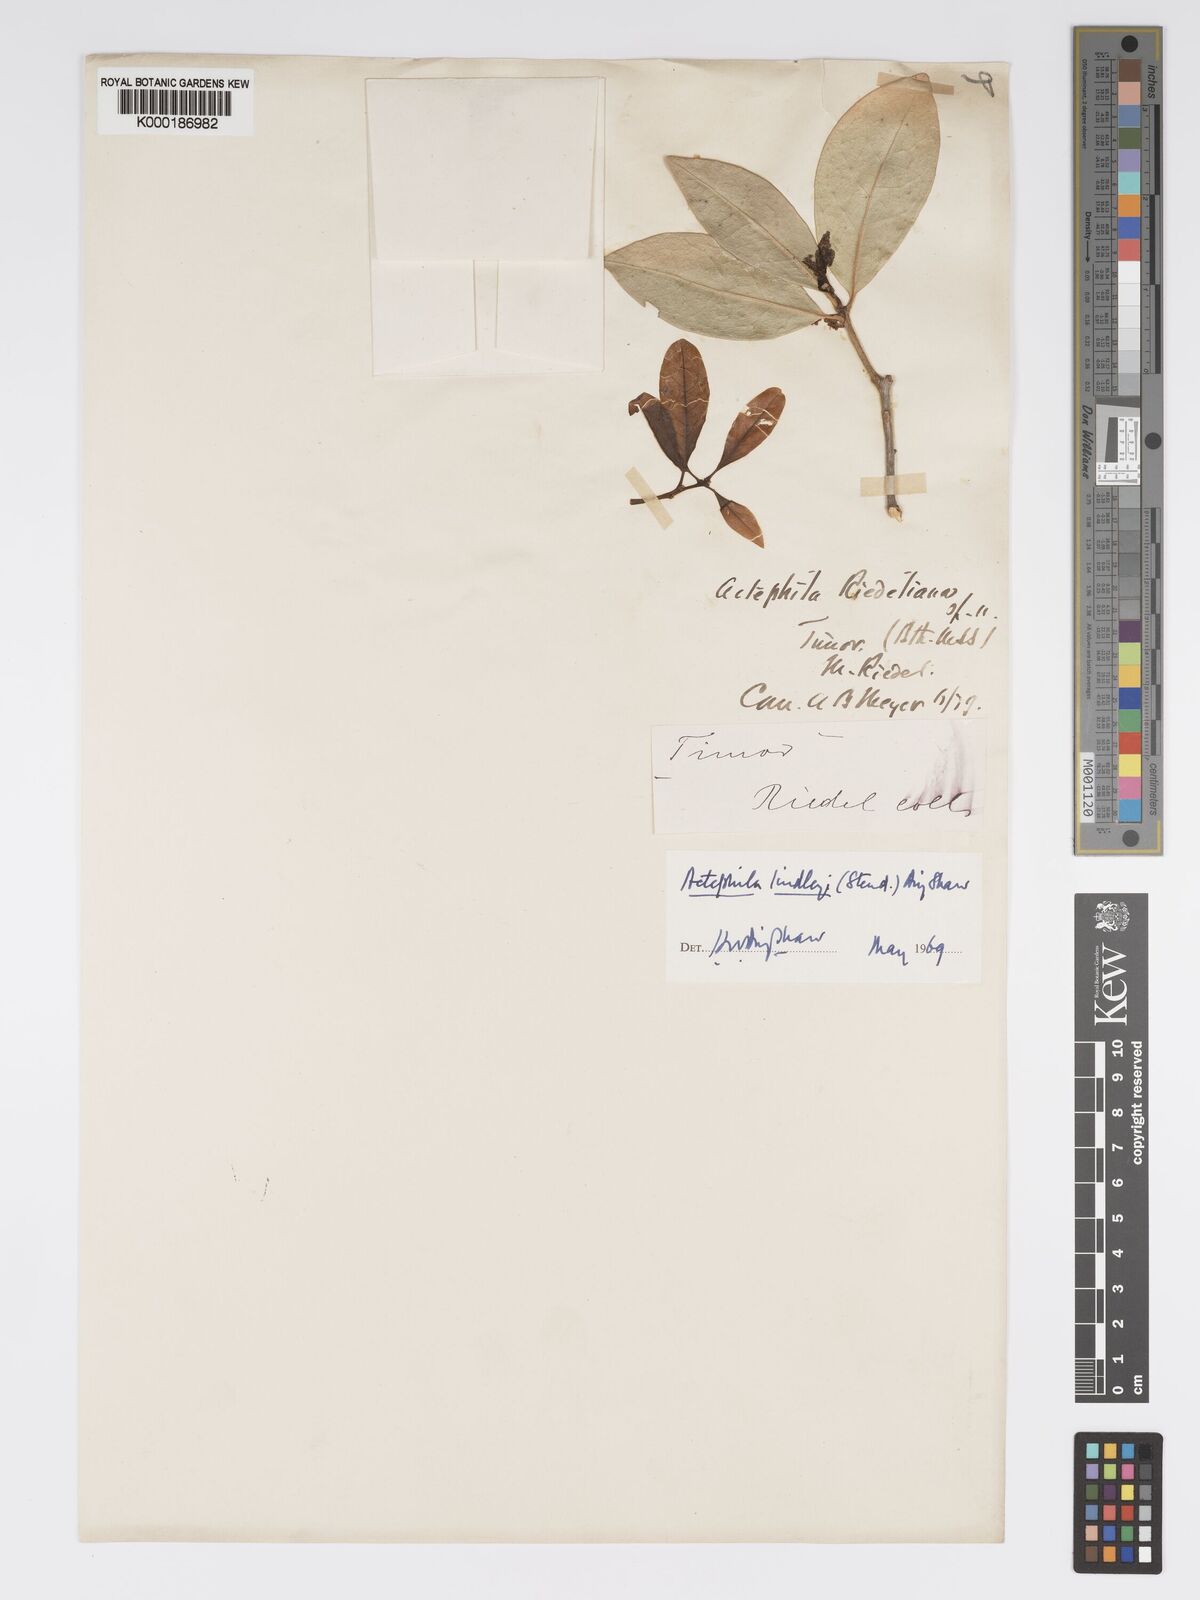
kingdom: Plantae
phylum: Tracheophyta
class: Magnoliopsida
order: Malpighiales
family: Phyllanthaceae
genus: Actephila
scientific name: Actephila lindleyi
